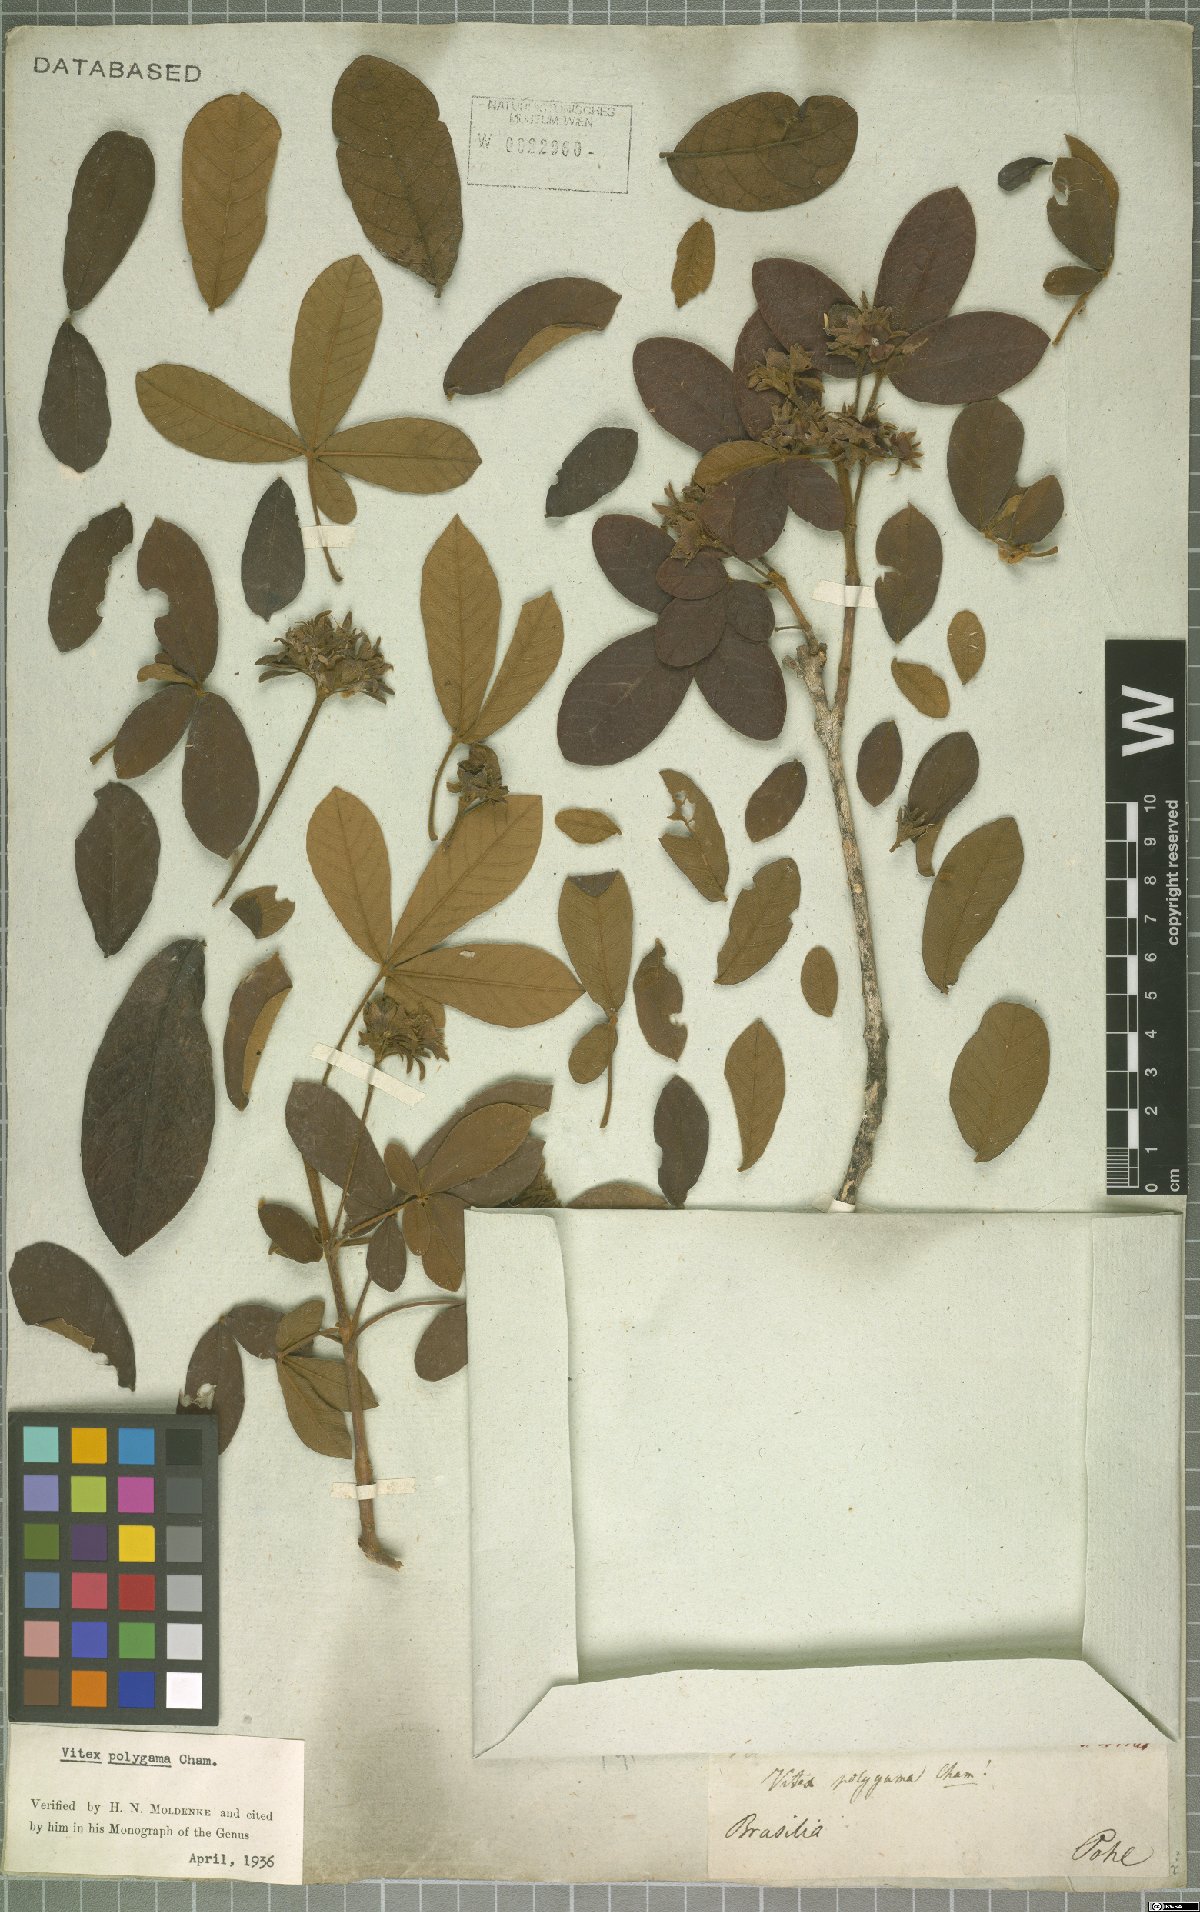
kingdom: Plantae
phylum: Tracheophyta
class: Magnoliopsida
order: Lamiales
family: Lamiaceae
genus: Vitex
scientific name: Vitex polygama
